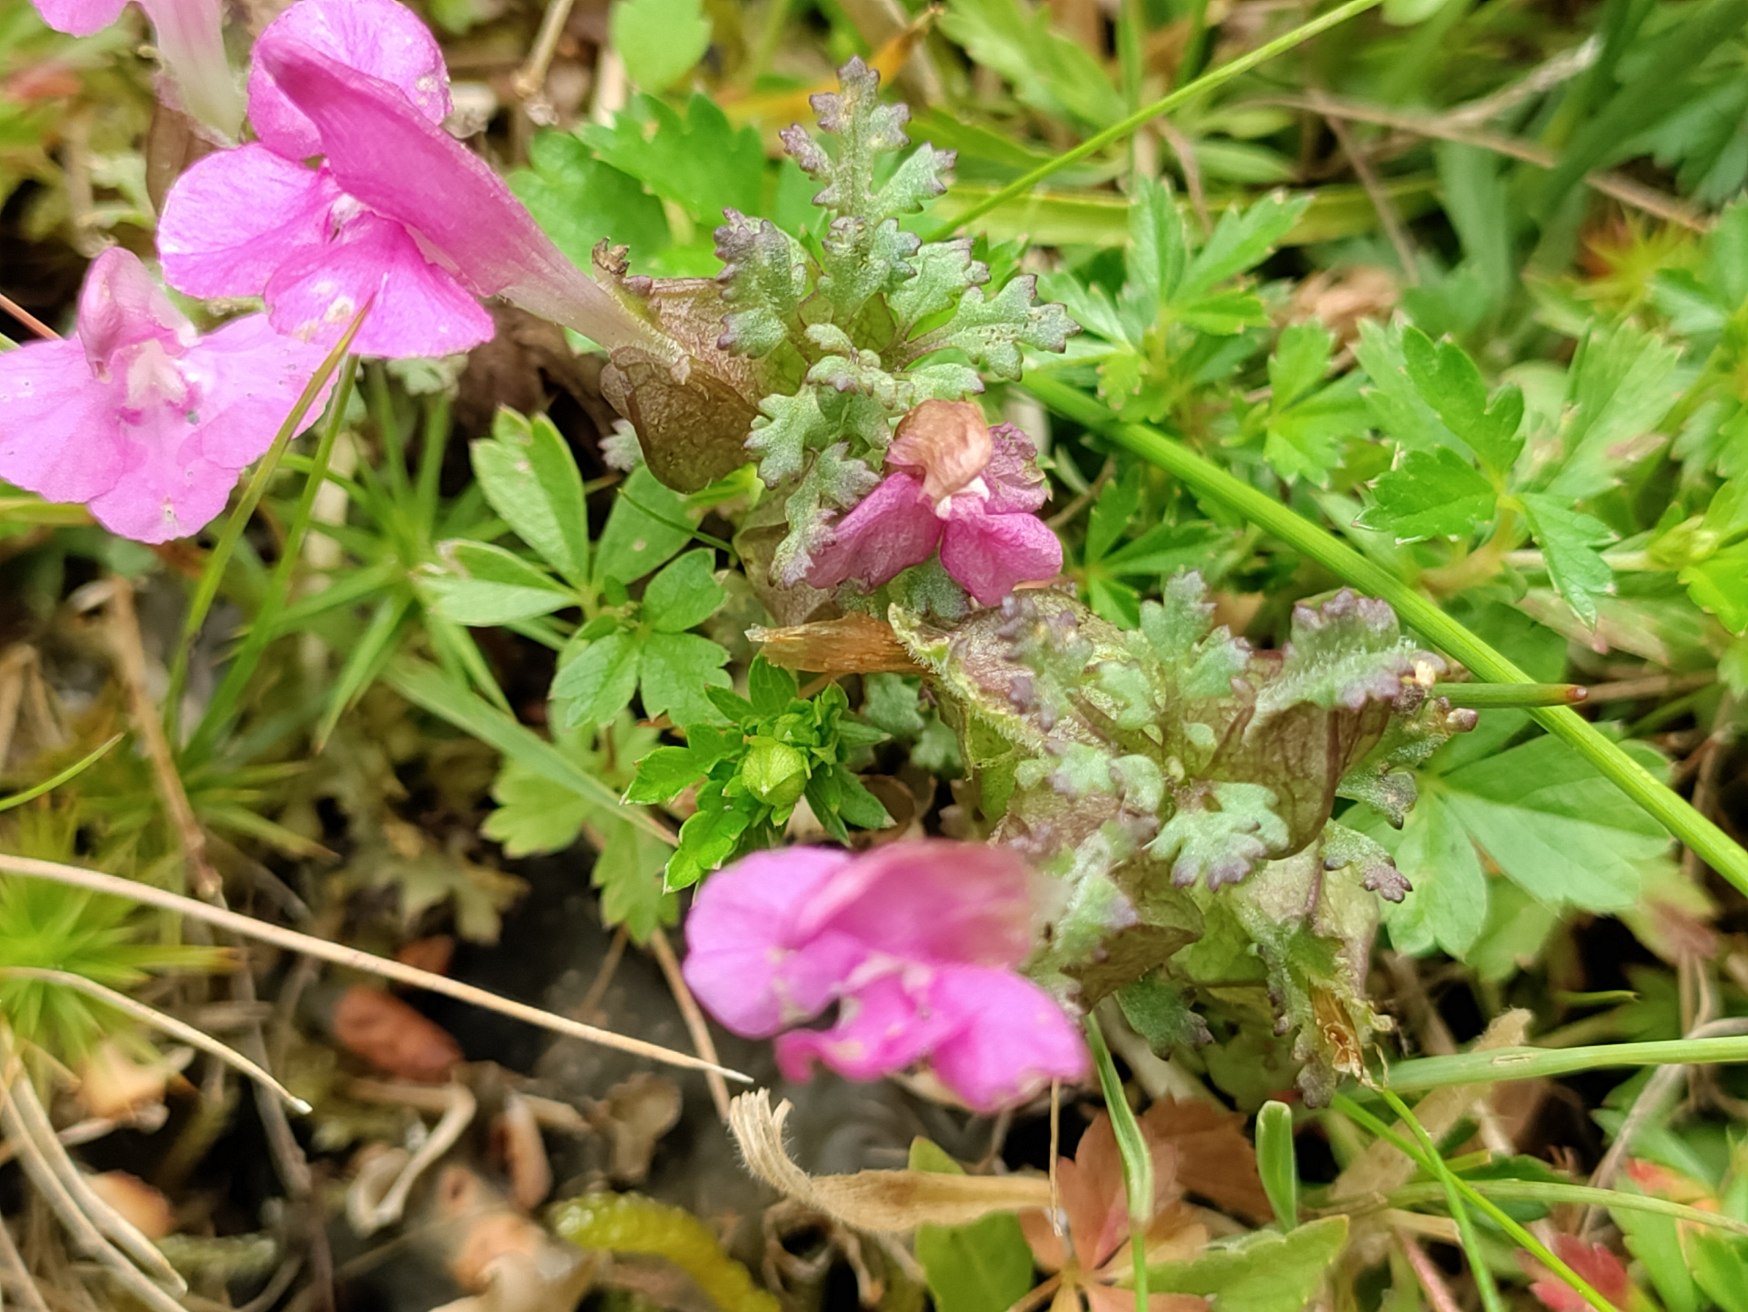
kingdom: Plantae
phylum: Tracheophyta
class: Magnoliopsida
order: Lamiales
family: Orobanchaceae
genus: Pedicularis
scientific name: Pedicularis palustris
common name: Eng-troldurt
